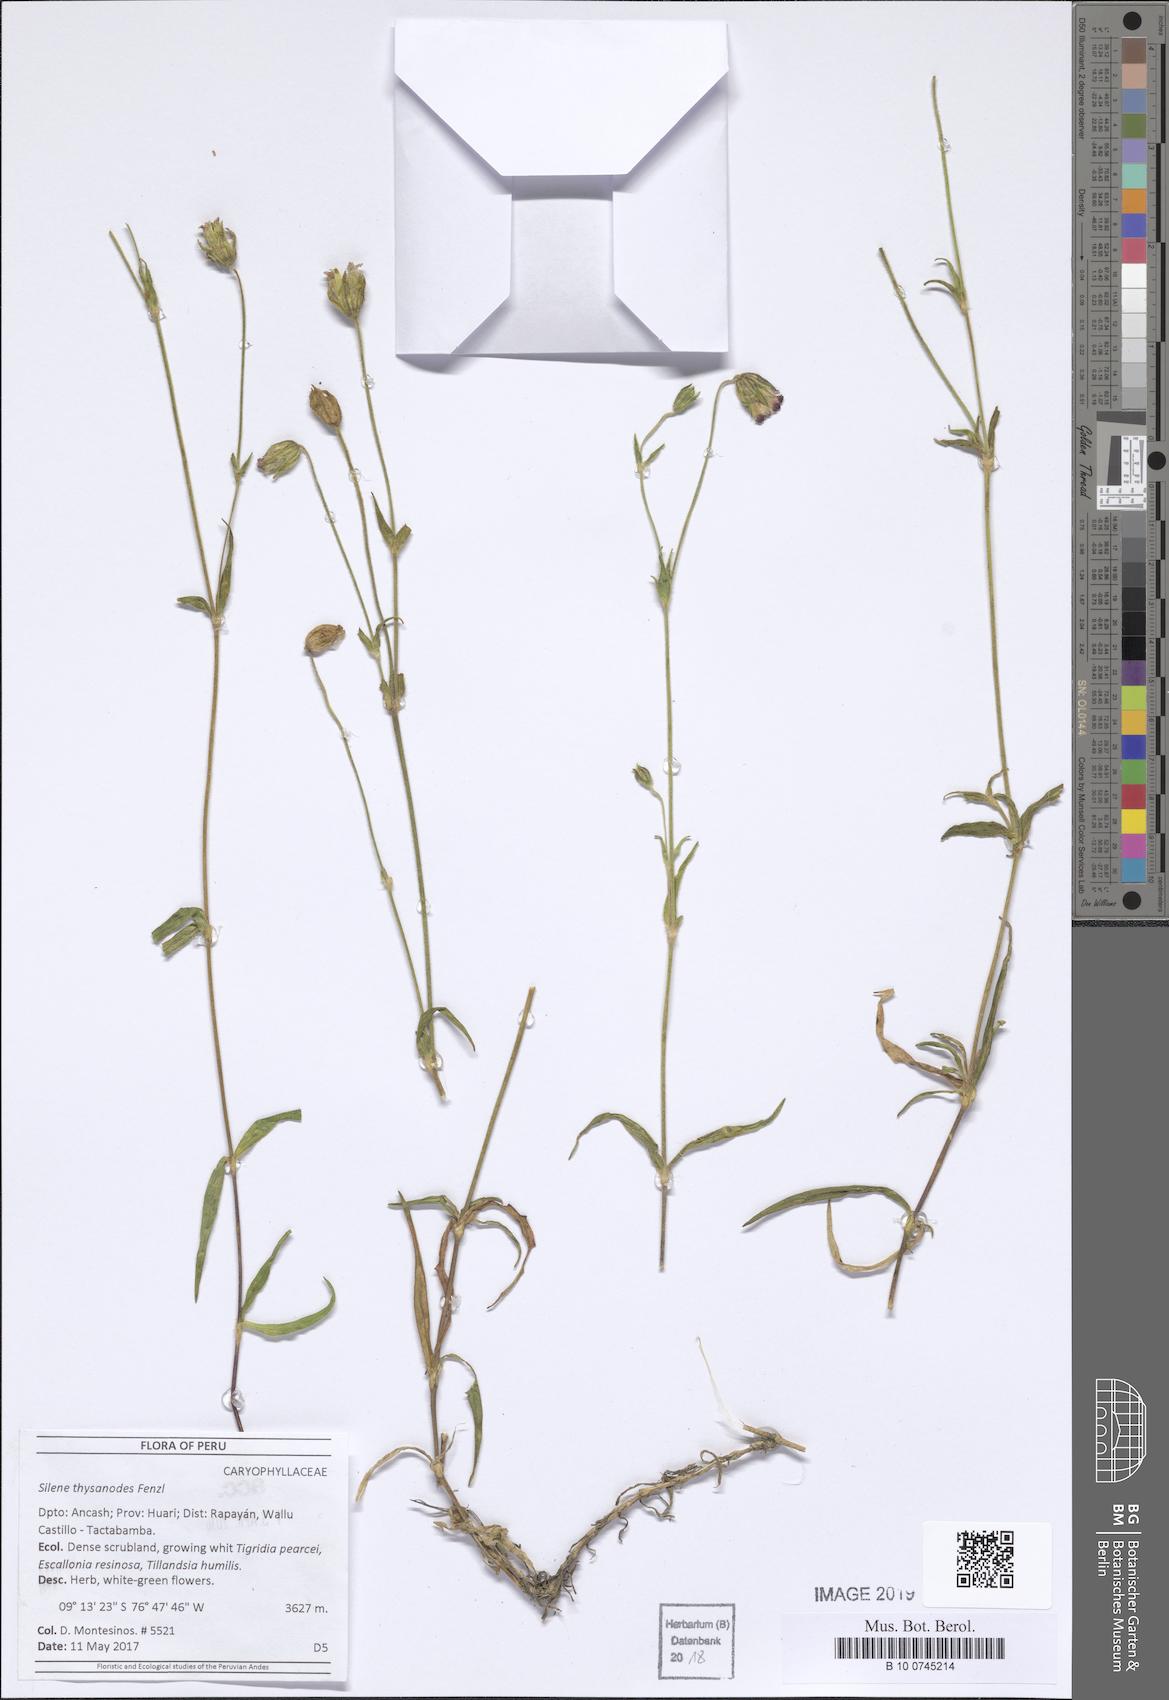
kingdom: Plantae
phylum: Tracheophyta
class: Magnoliopsida
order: Caryophyllales
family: Caryophyllaceae
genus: Silene
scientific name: Silene thysanodes
